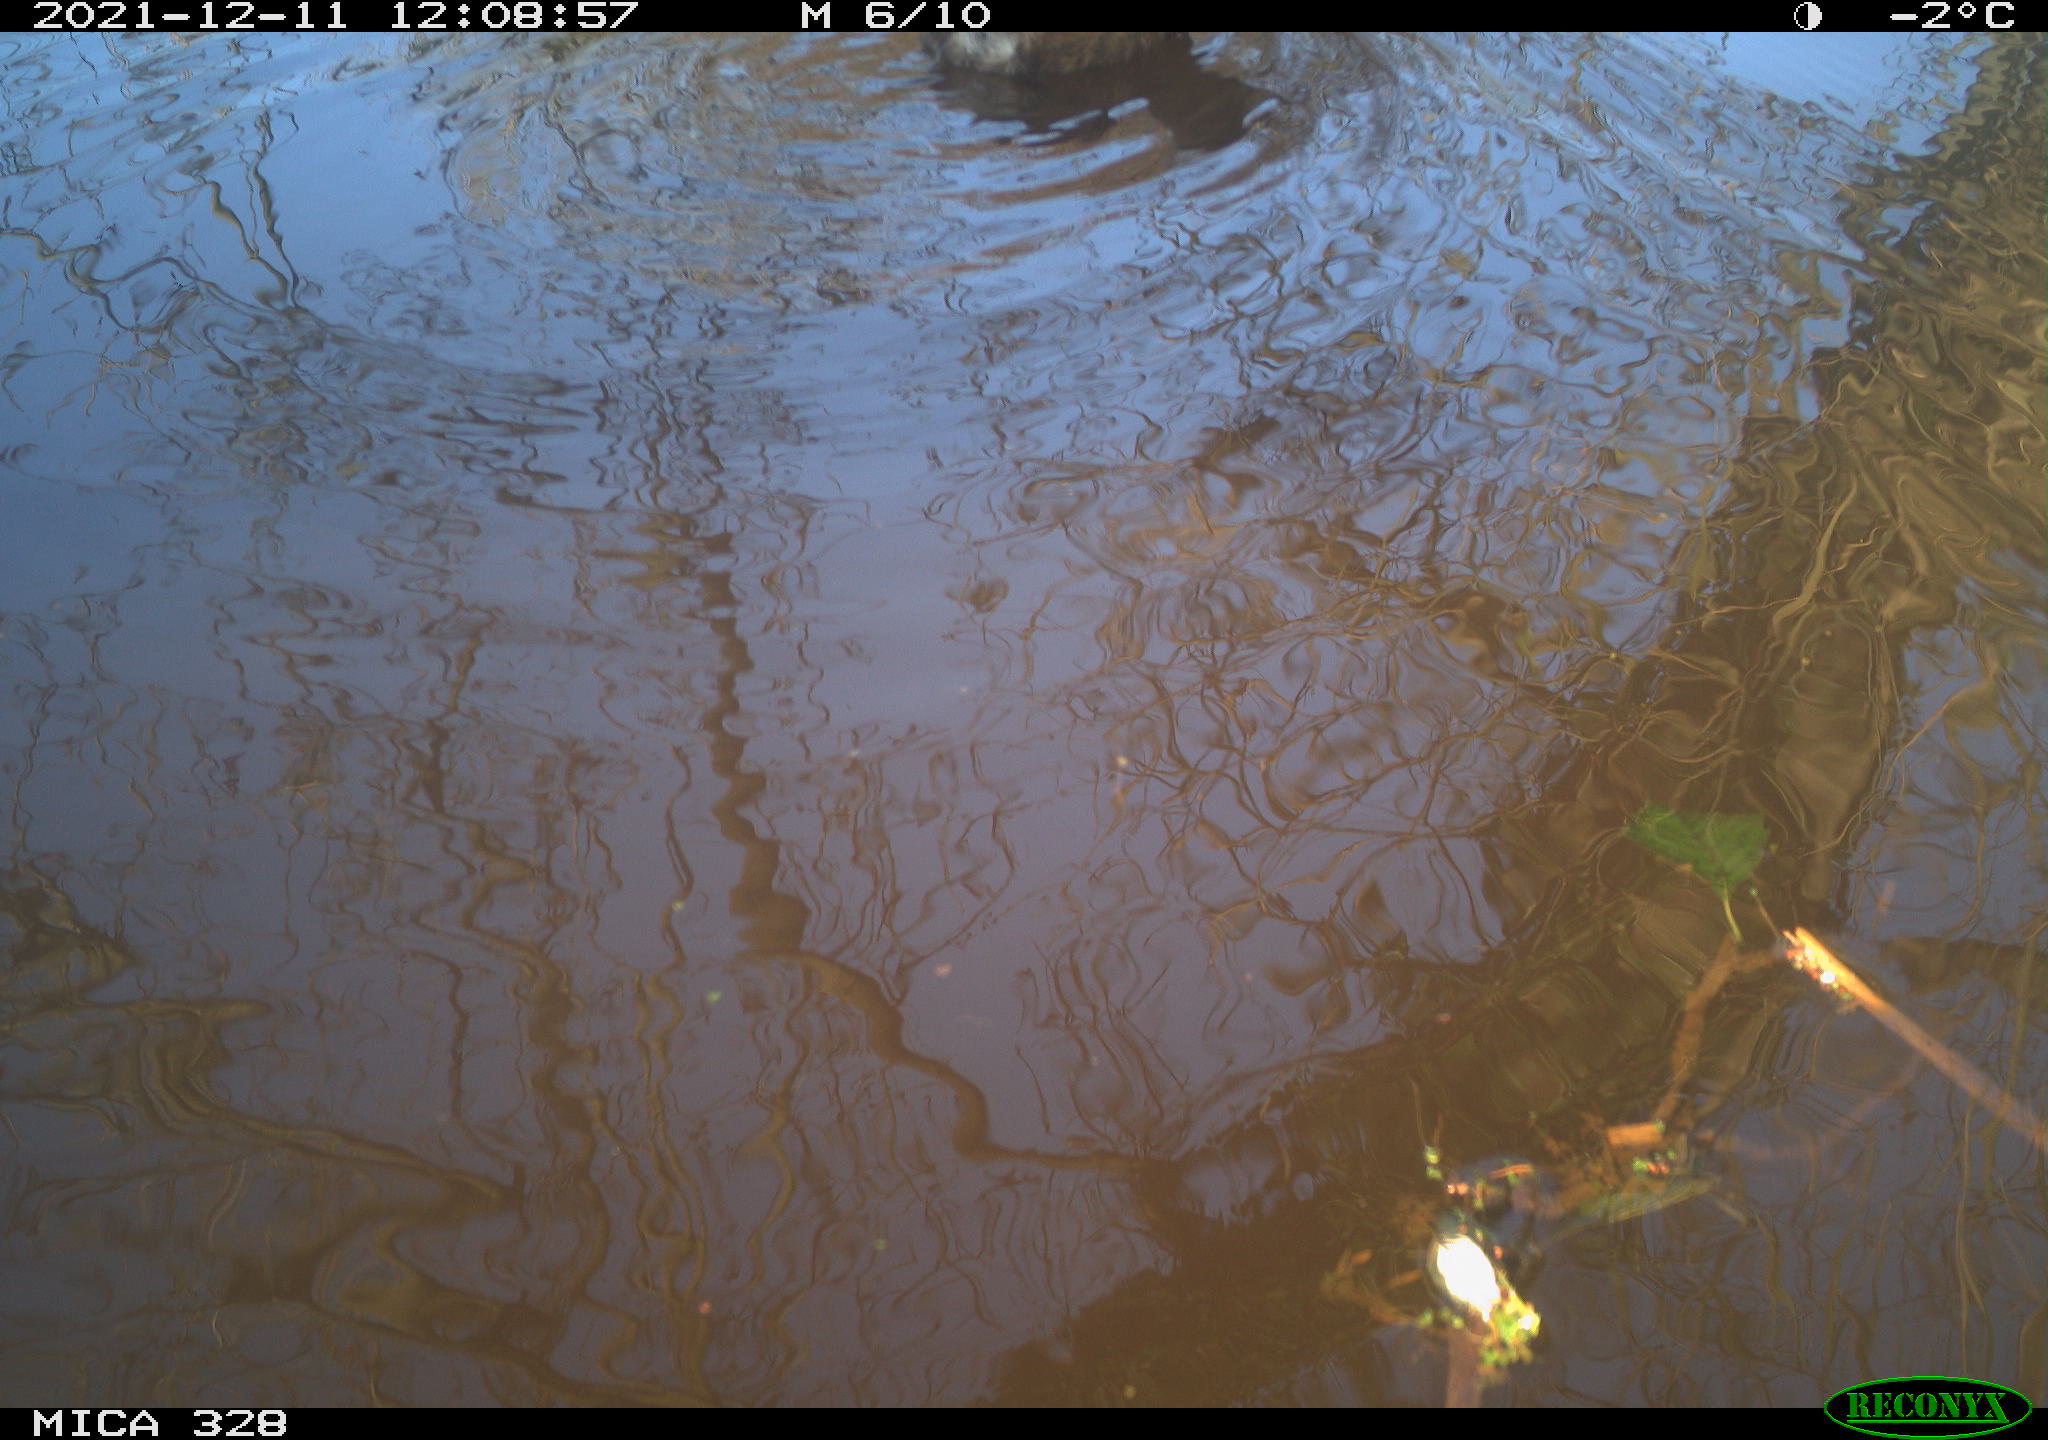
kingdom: Animalia
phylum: Chordata
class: Aves
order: Gruiformes
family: Rallidae
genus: Gallinula
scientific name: Gallinula chloropus
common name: Common moorhen
